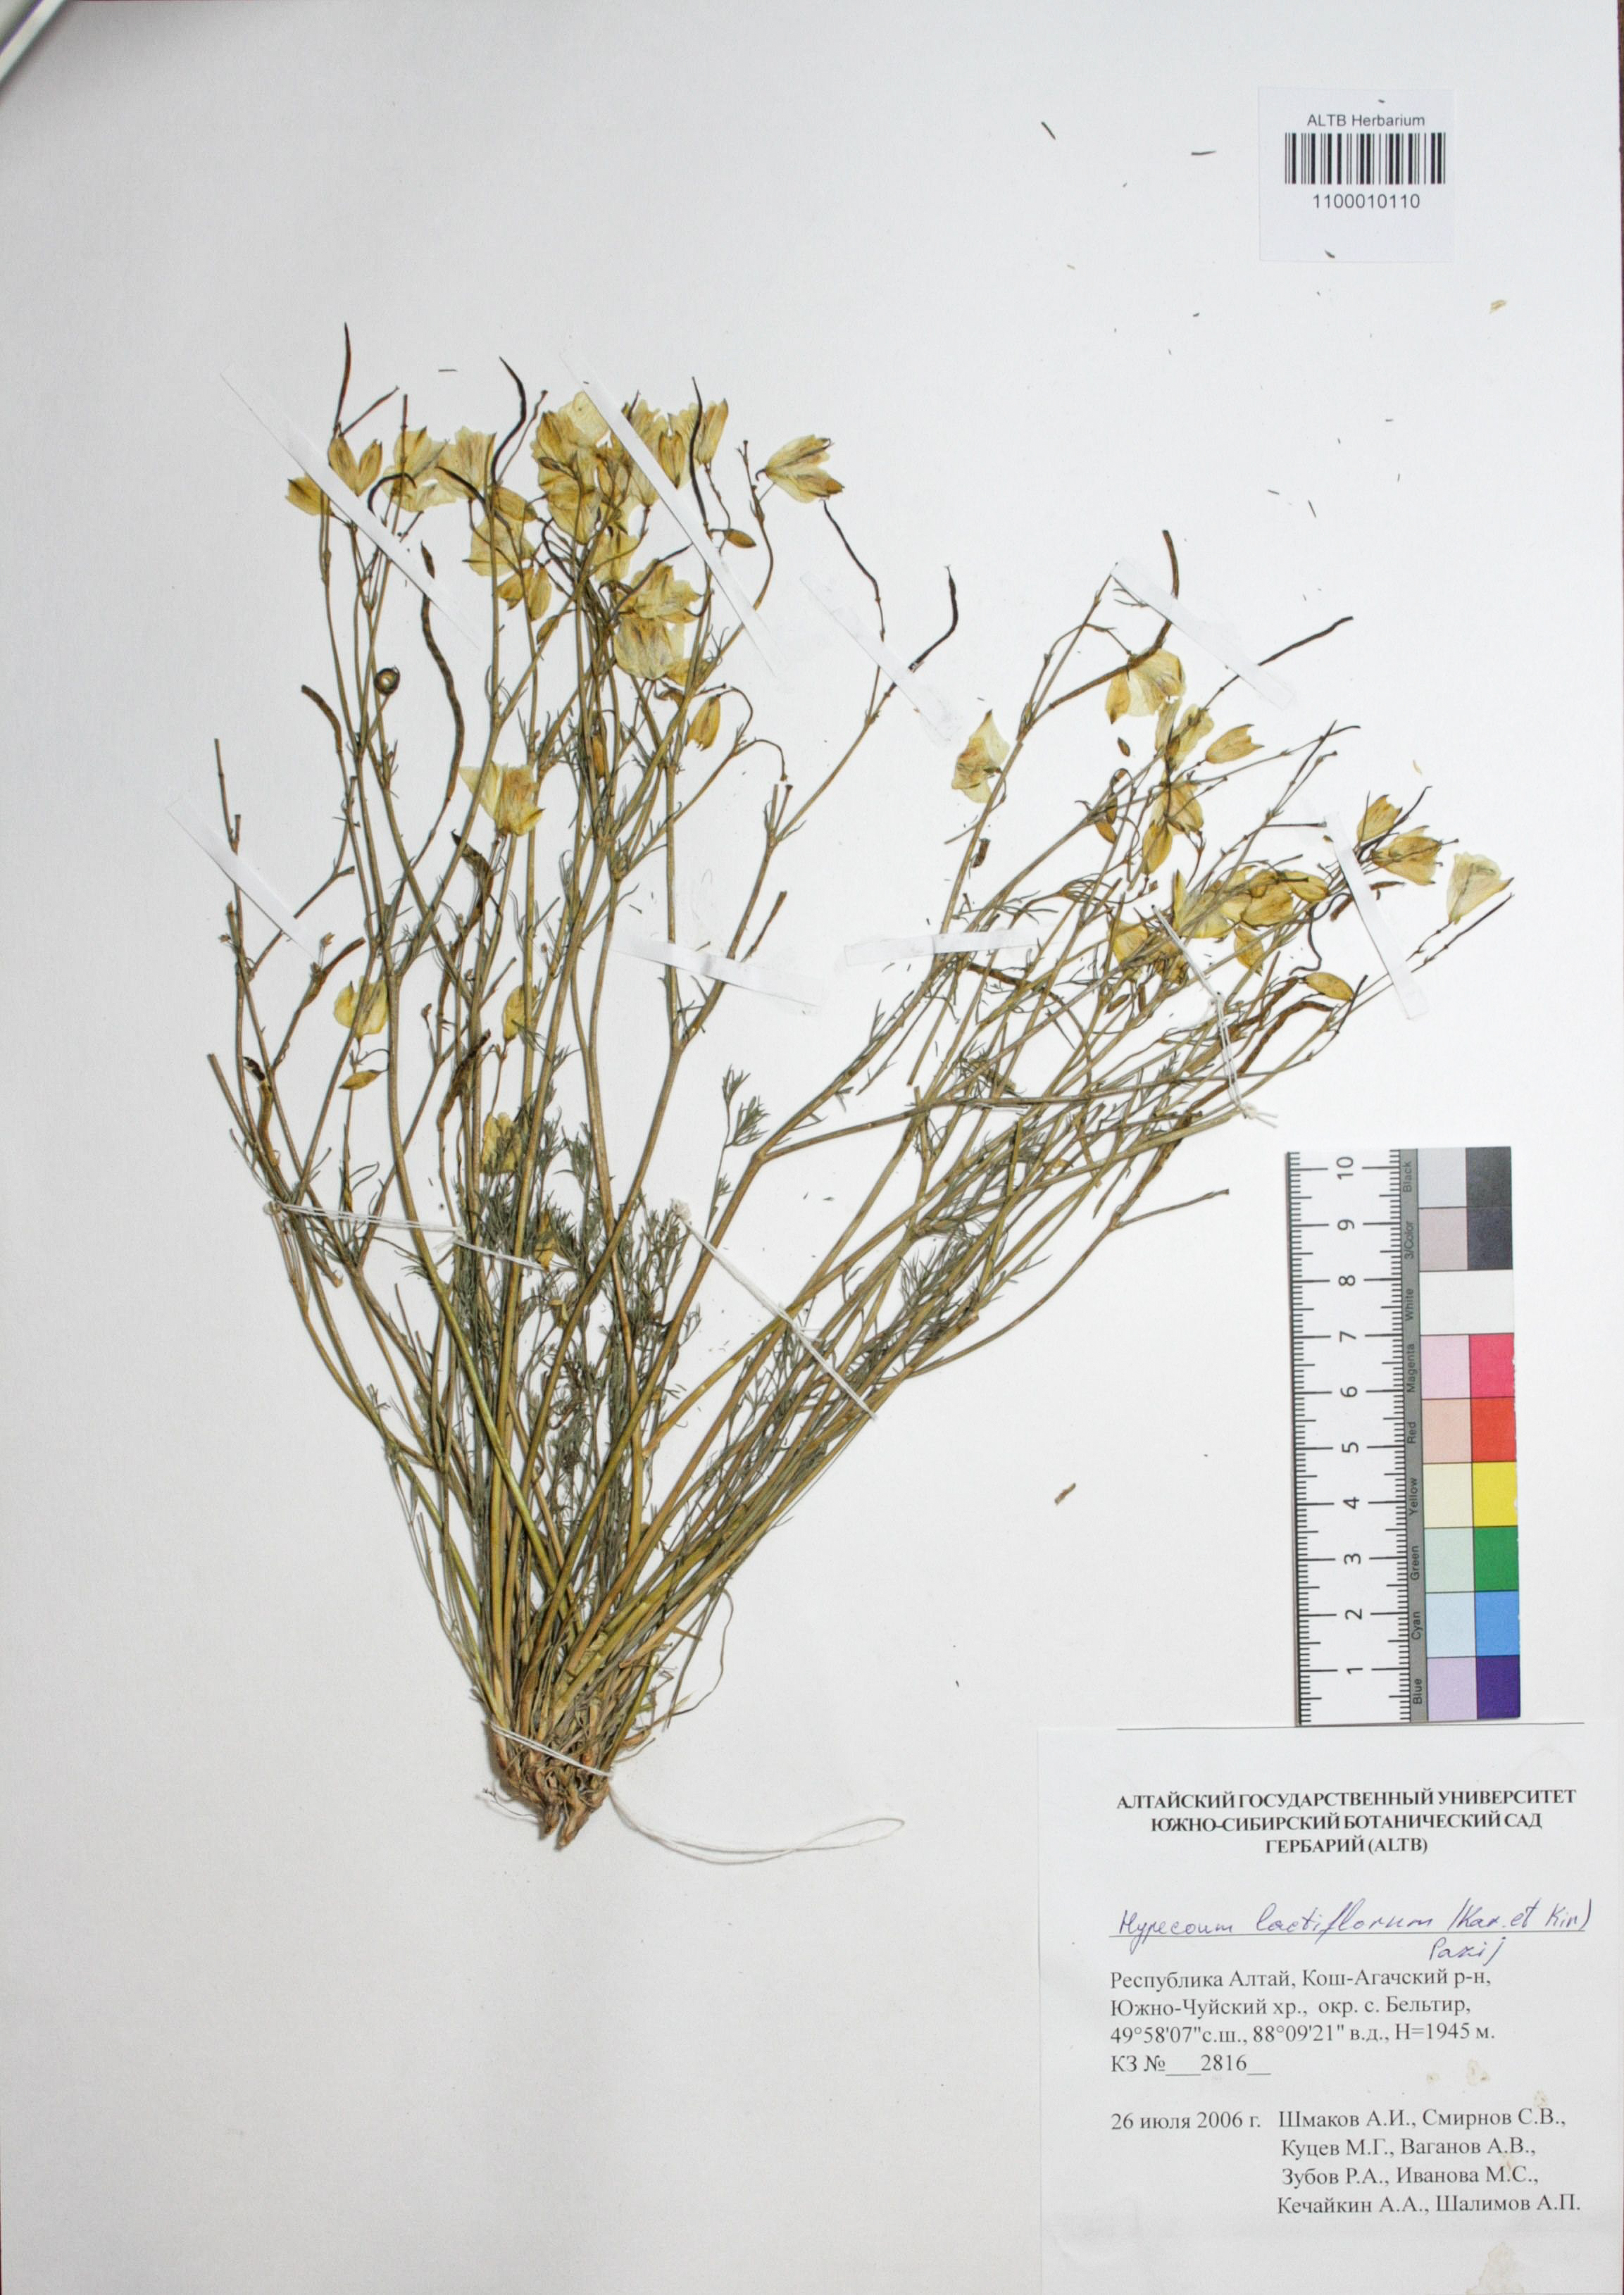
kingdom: Plantae
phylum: Tracheophyta
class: Magnoliopsida
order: Ranunculales
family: Papaveraceae
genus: Hypecoum
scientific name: Hypecoum lactiflorum
